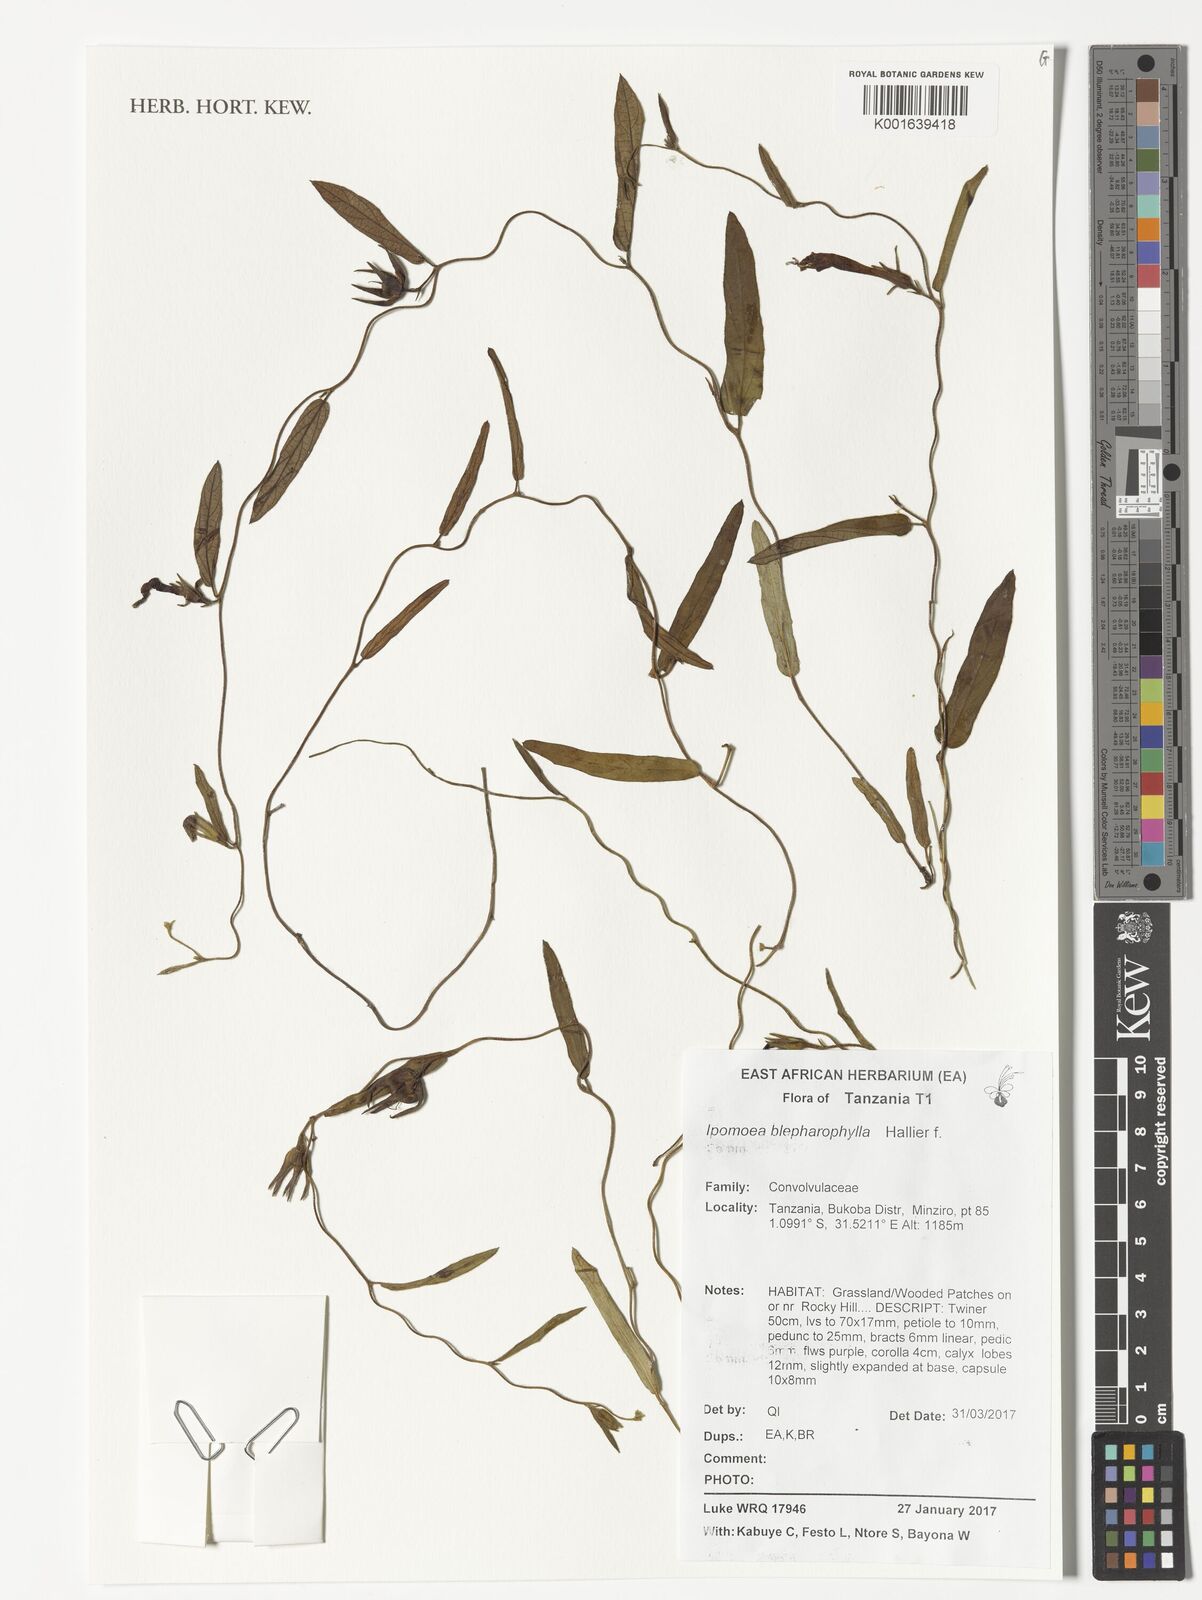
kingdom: Plantae
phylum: Tracheophyta
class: Magnoliopsida
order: Solanales
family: Convolvulaceae
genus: Ipomoea
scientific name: Ipomoea blepharophylla
